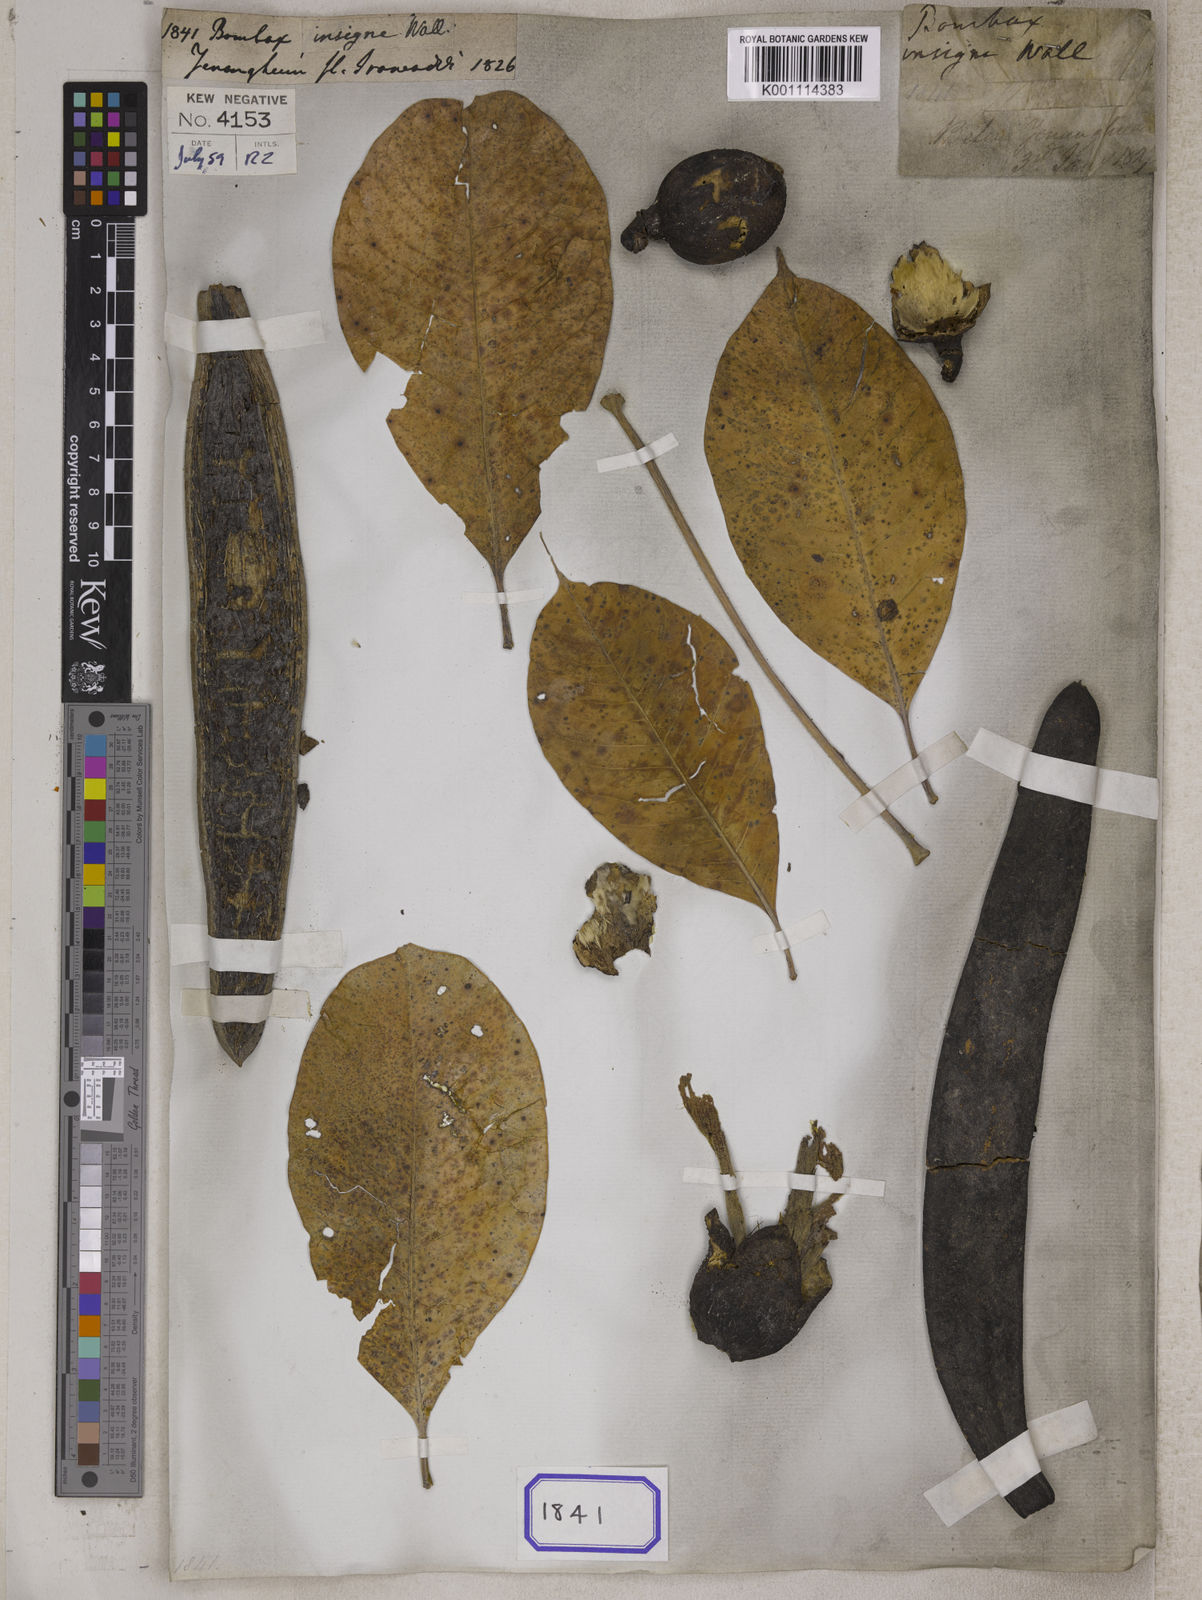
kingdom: Plantae
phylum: Tracheophyta
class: Magnoliopsida
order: Malvales
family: Malvaceae
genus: Bombax
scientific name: Bombax insigne
